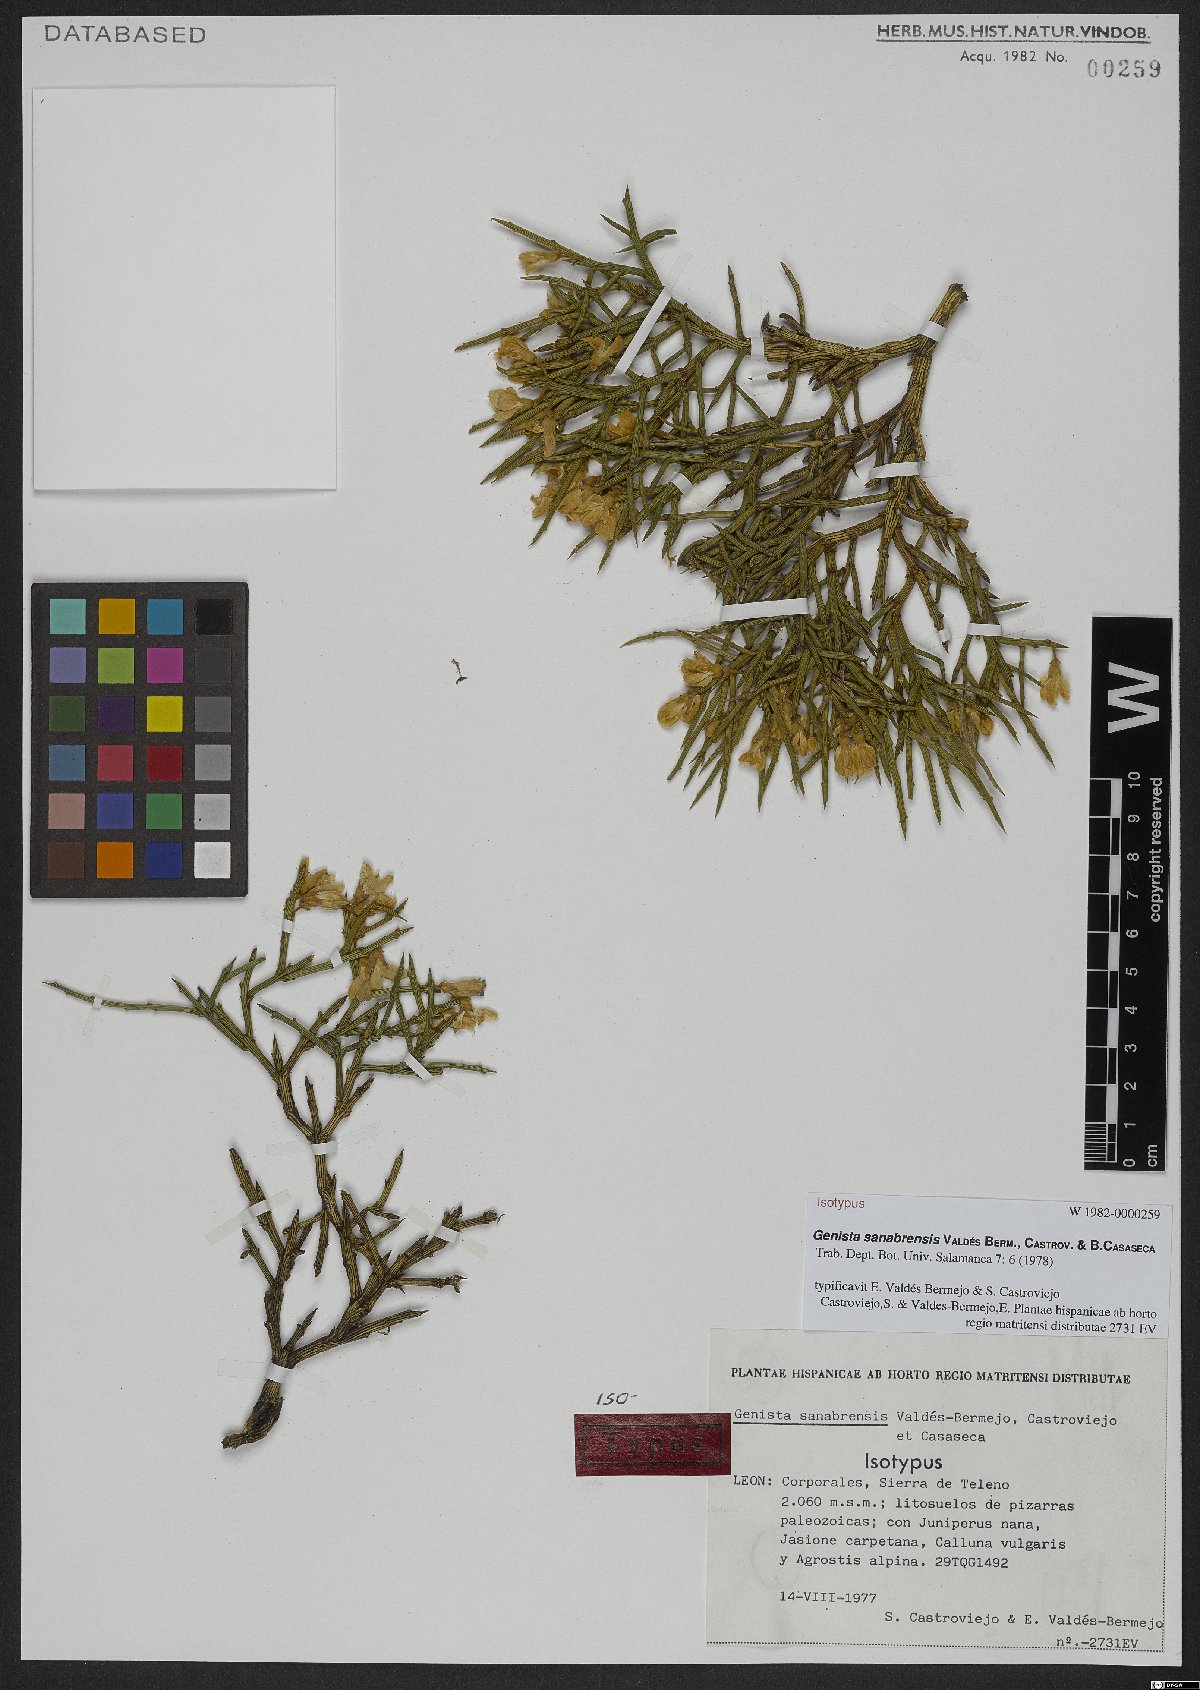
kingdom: Plantae
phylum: Tracheophyta
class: Magnoliopsida
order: Fabales
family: Fabaceae
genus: Genista
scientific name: Genista sanabrensis
